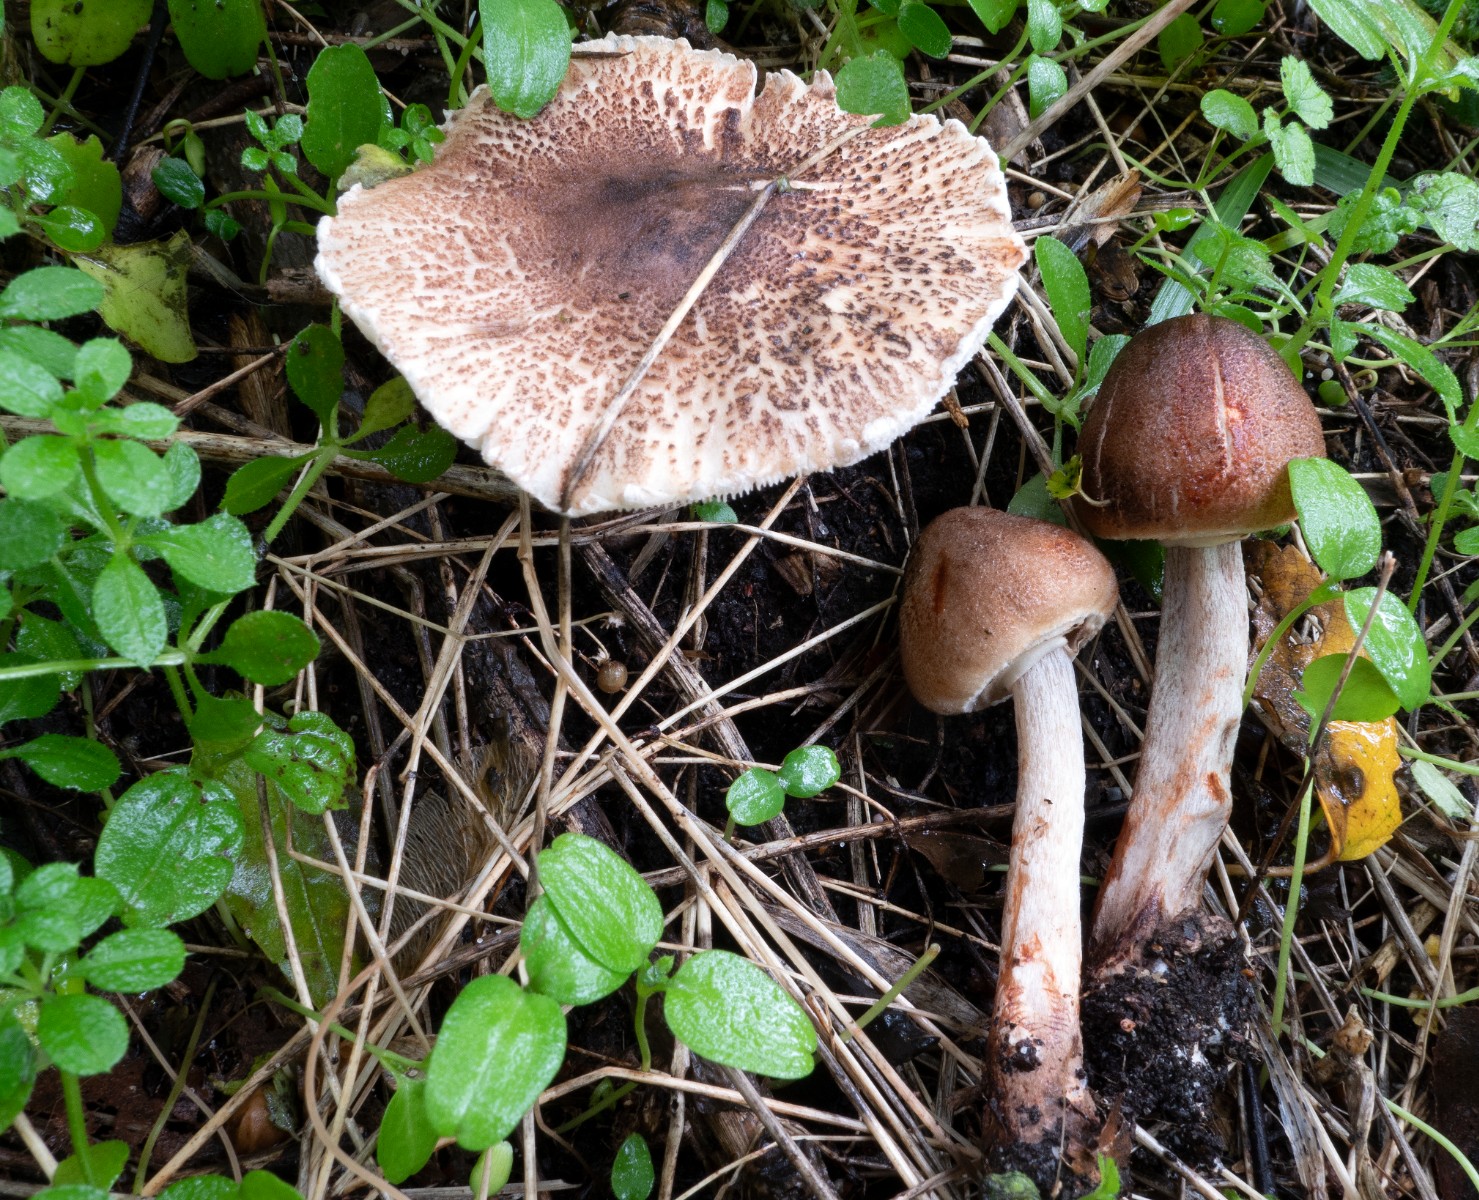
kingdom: Fungi
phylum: Basidiomycota
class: Agaricomycetes
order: Agaricales
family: Agaricaceae
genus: Leucoagaricus
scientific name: Leucoagaricus badhamii
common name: rødmende silkehat
